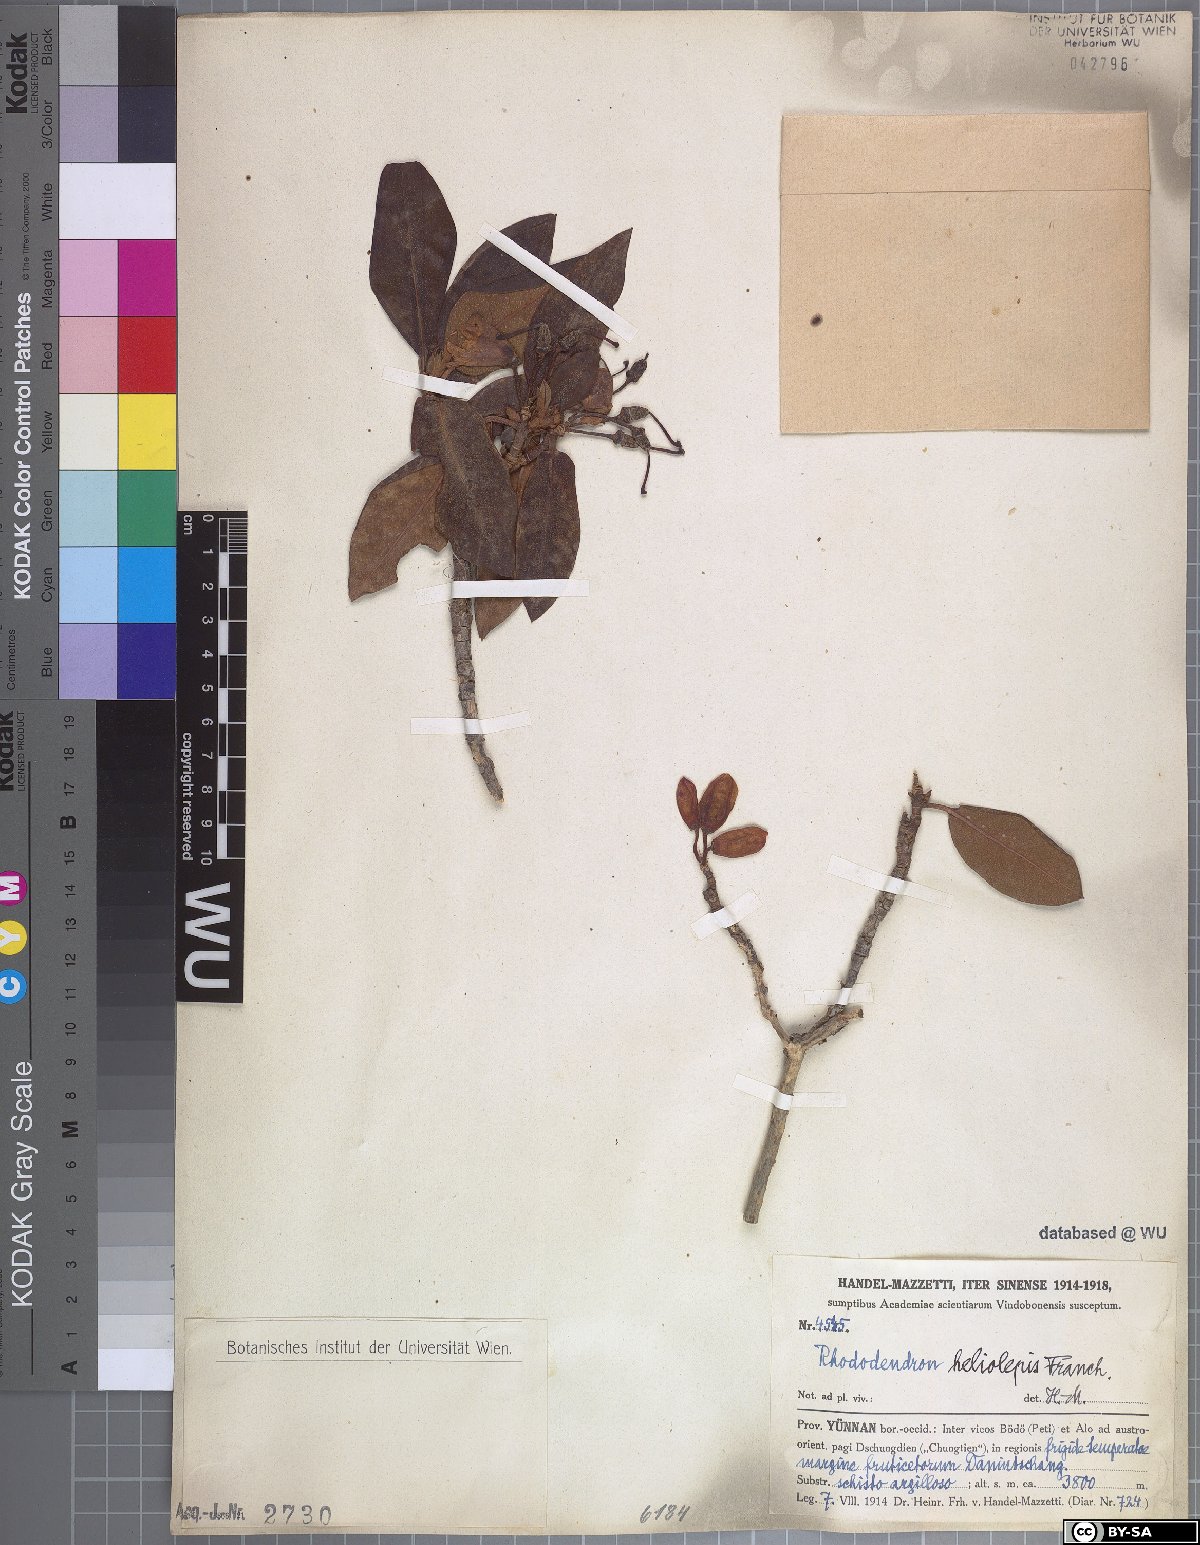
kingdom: Plantae
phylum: Tracheophyta
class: Magnoliopsida
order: Ericales
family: Ericaceae
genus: Rhododendron
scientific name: Rhododendron heliolepis
